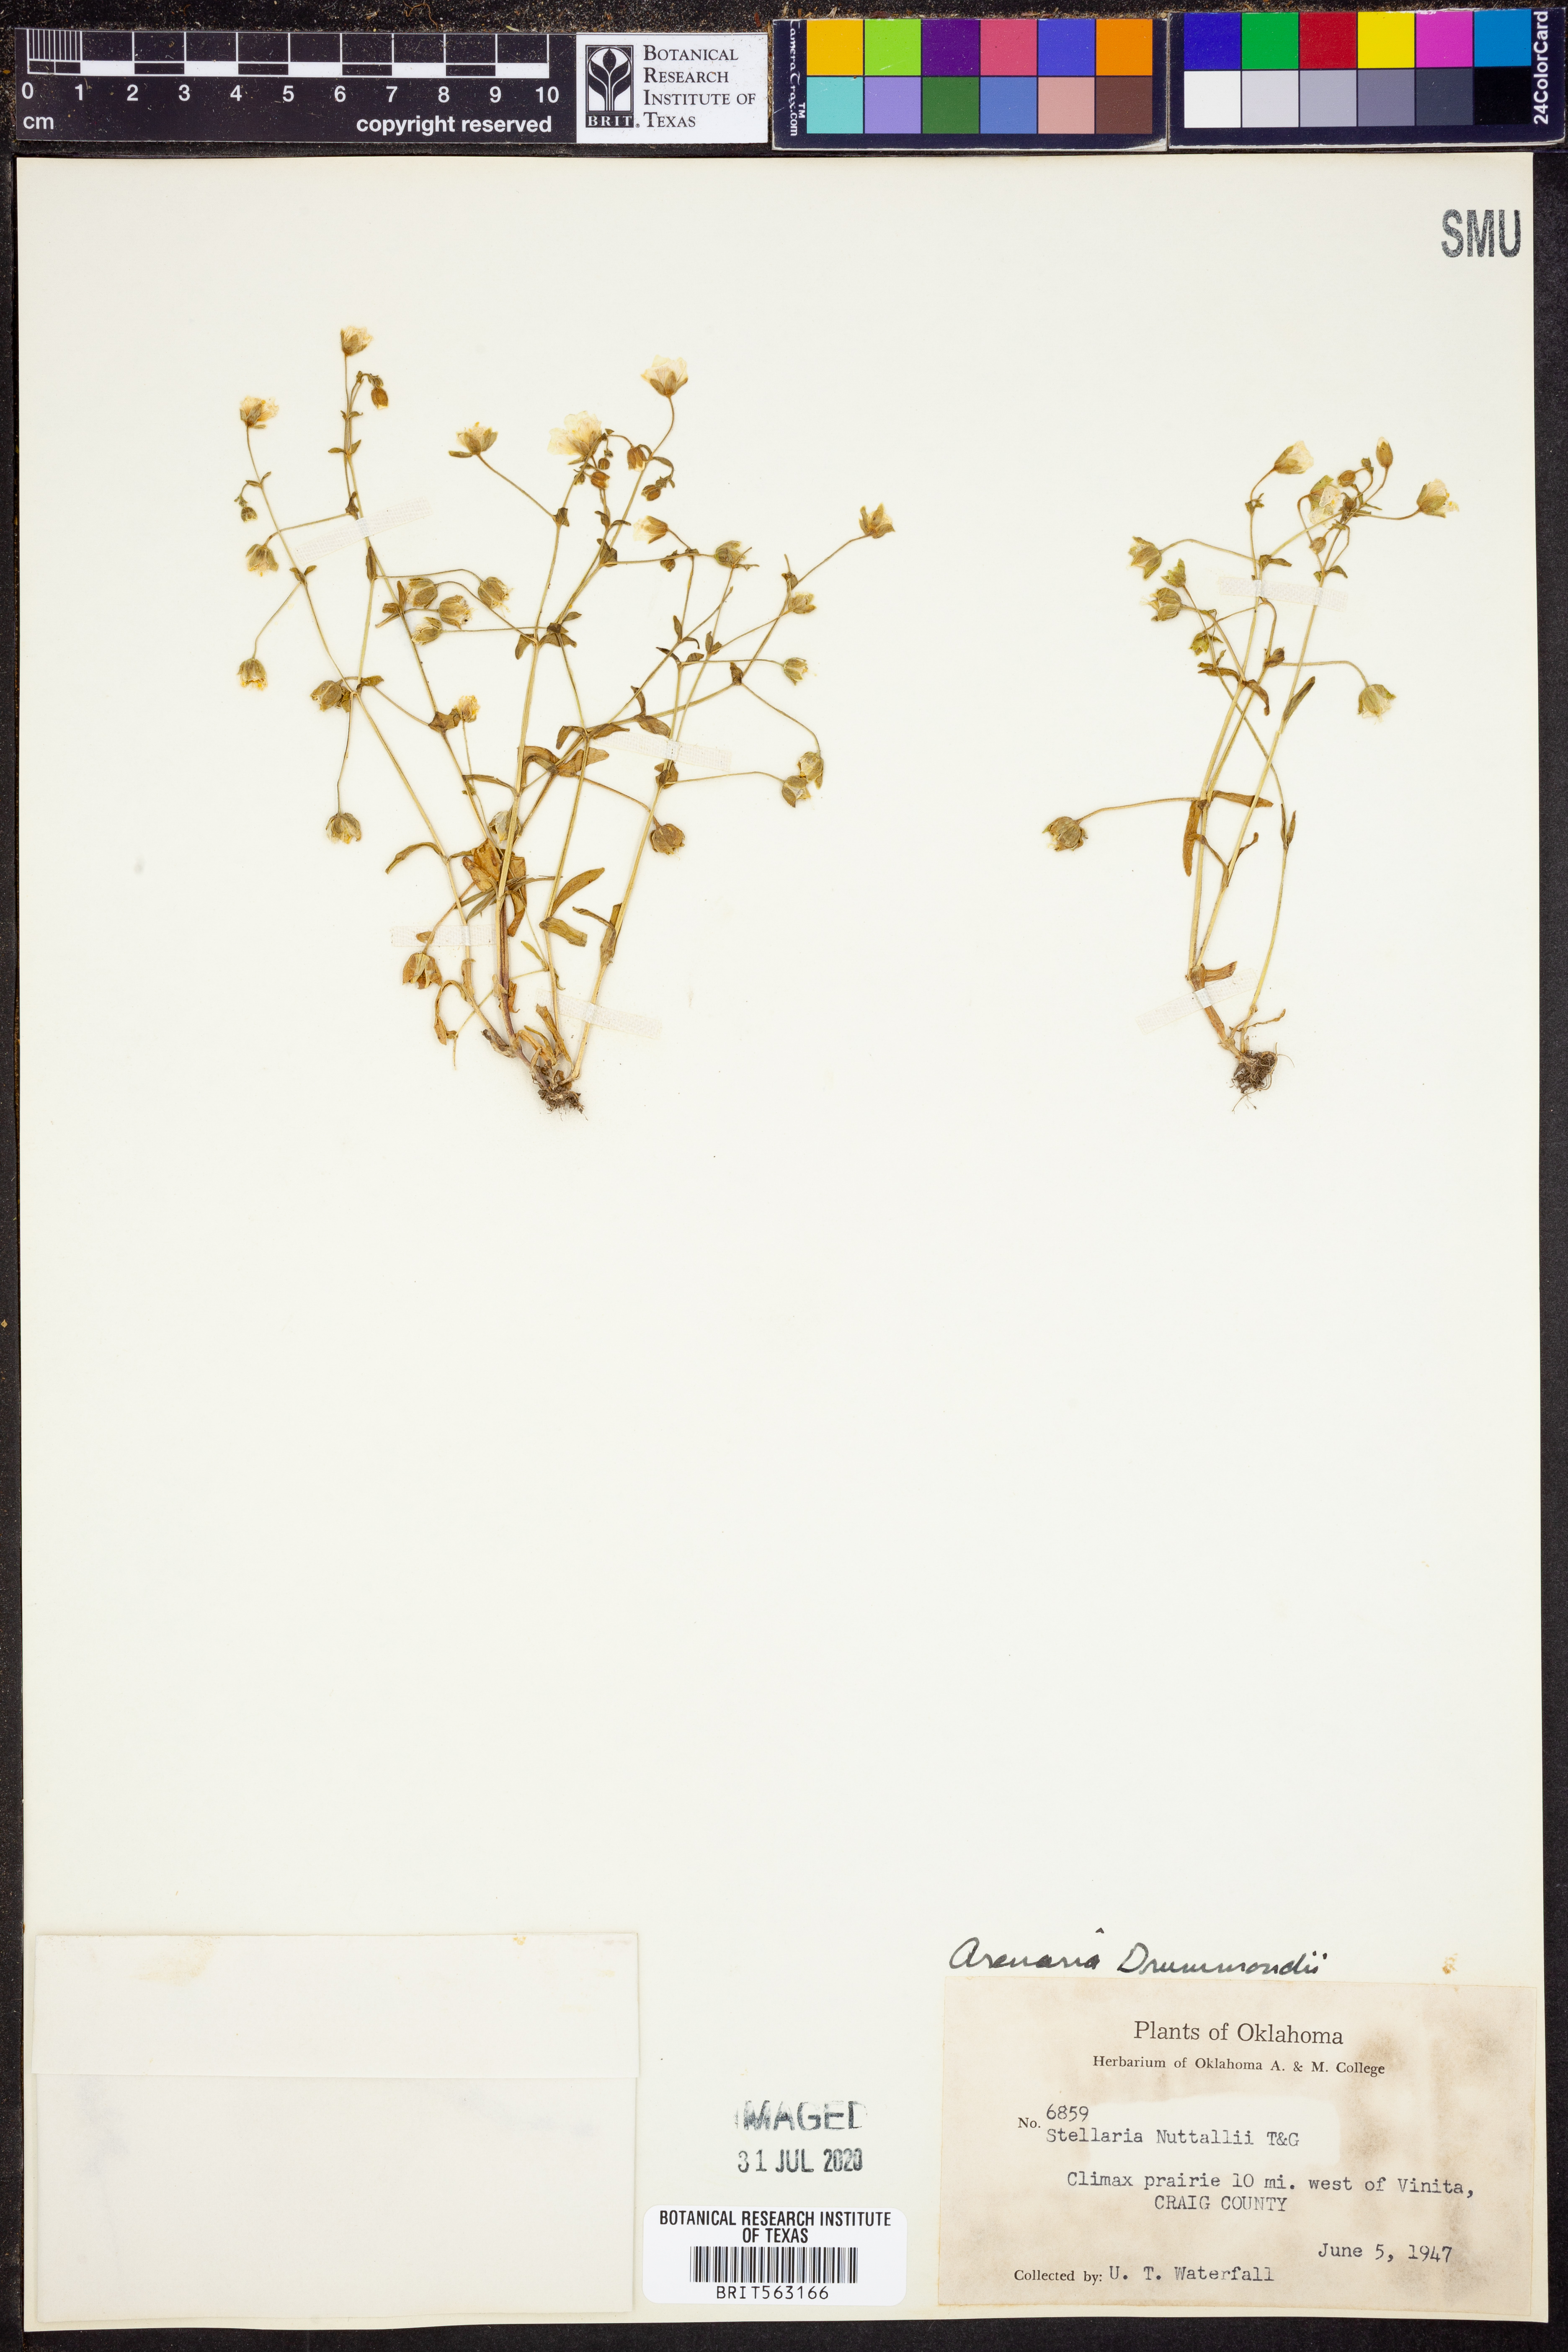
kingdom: Plantae
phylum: Tracheophyta
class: Magnoliopsida
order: Caryophyllales
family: Caryophyllaceae
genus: Geocarpon
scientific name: Geocarpon nuttallii
